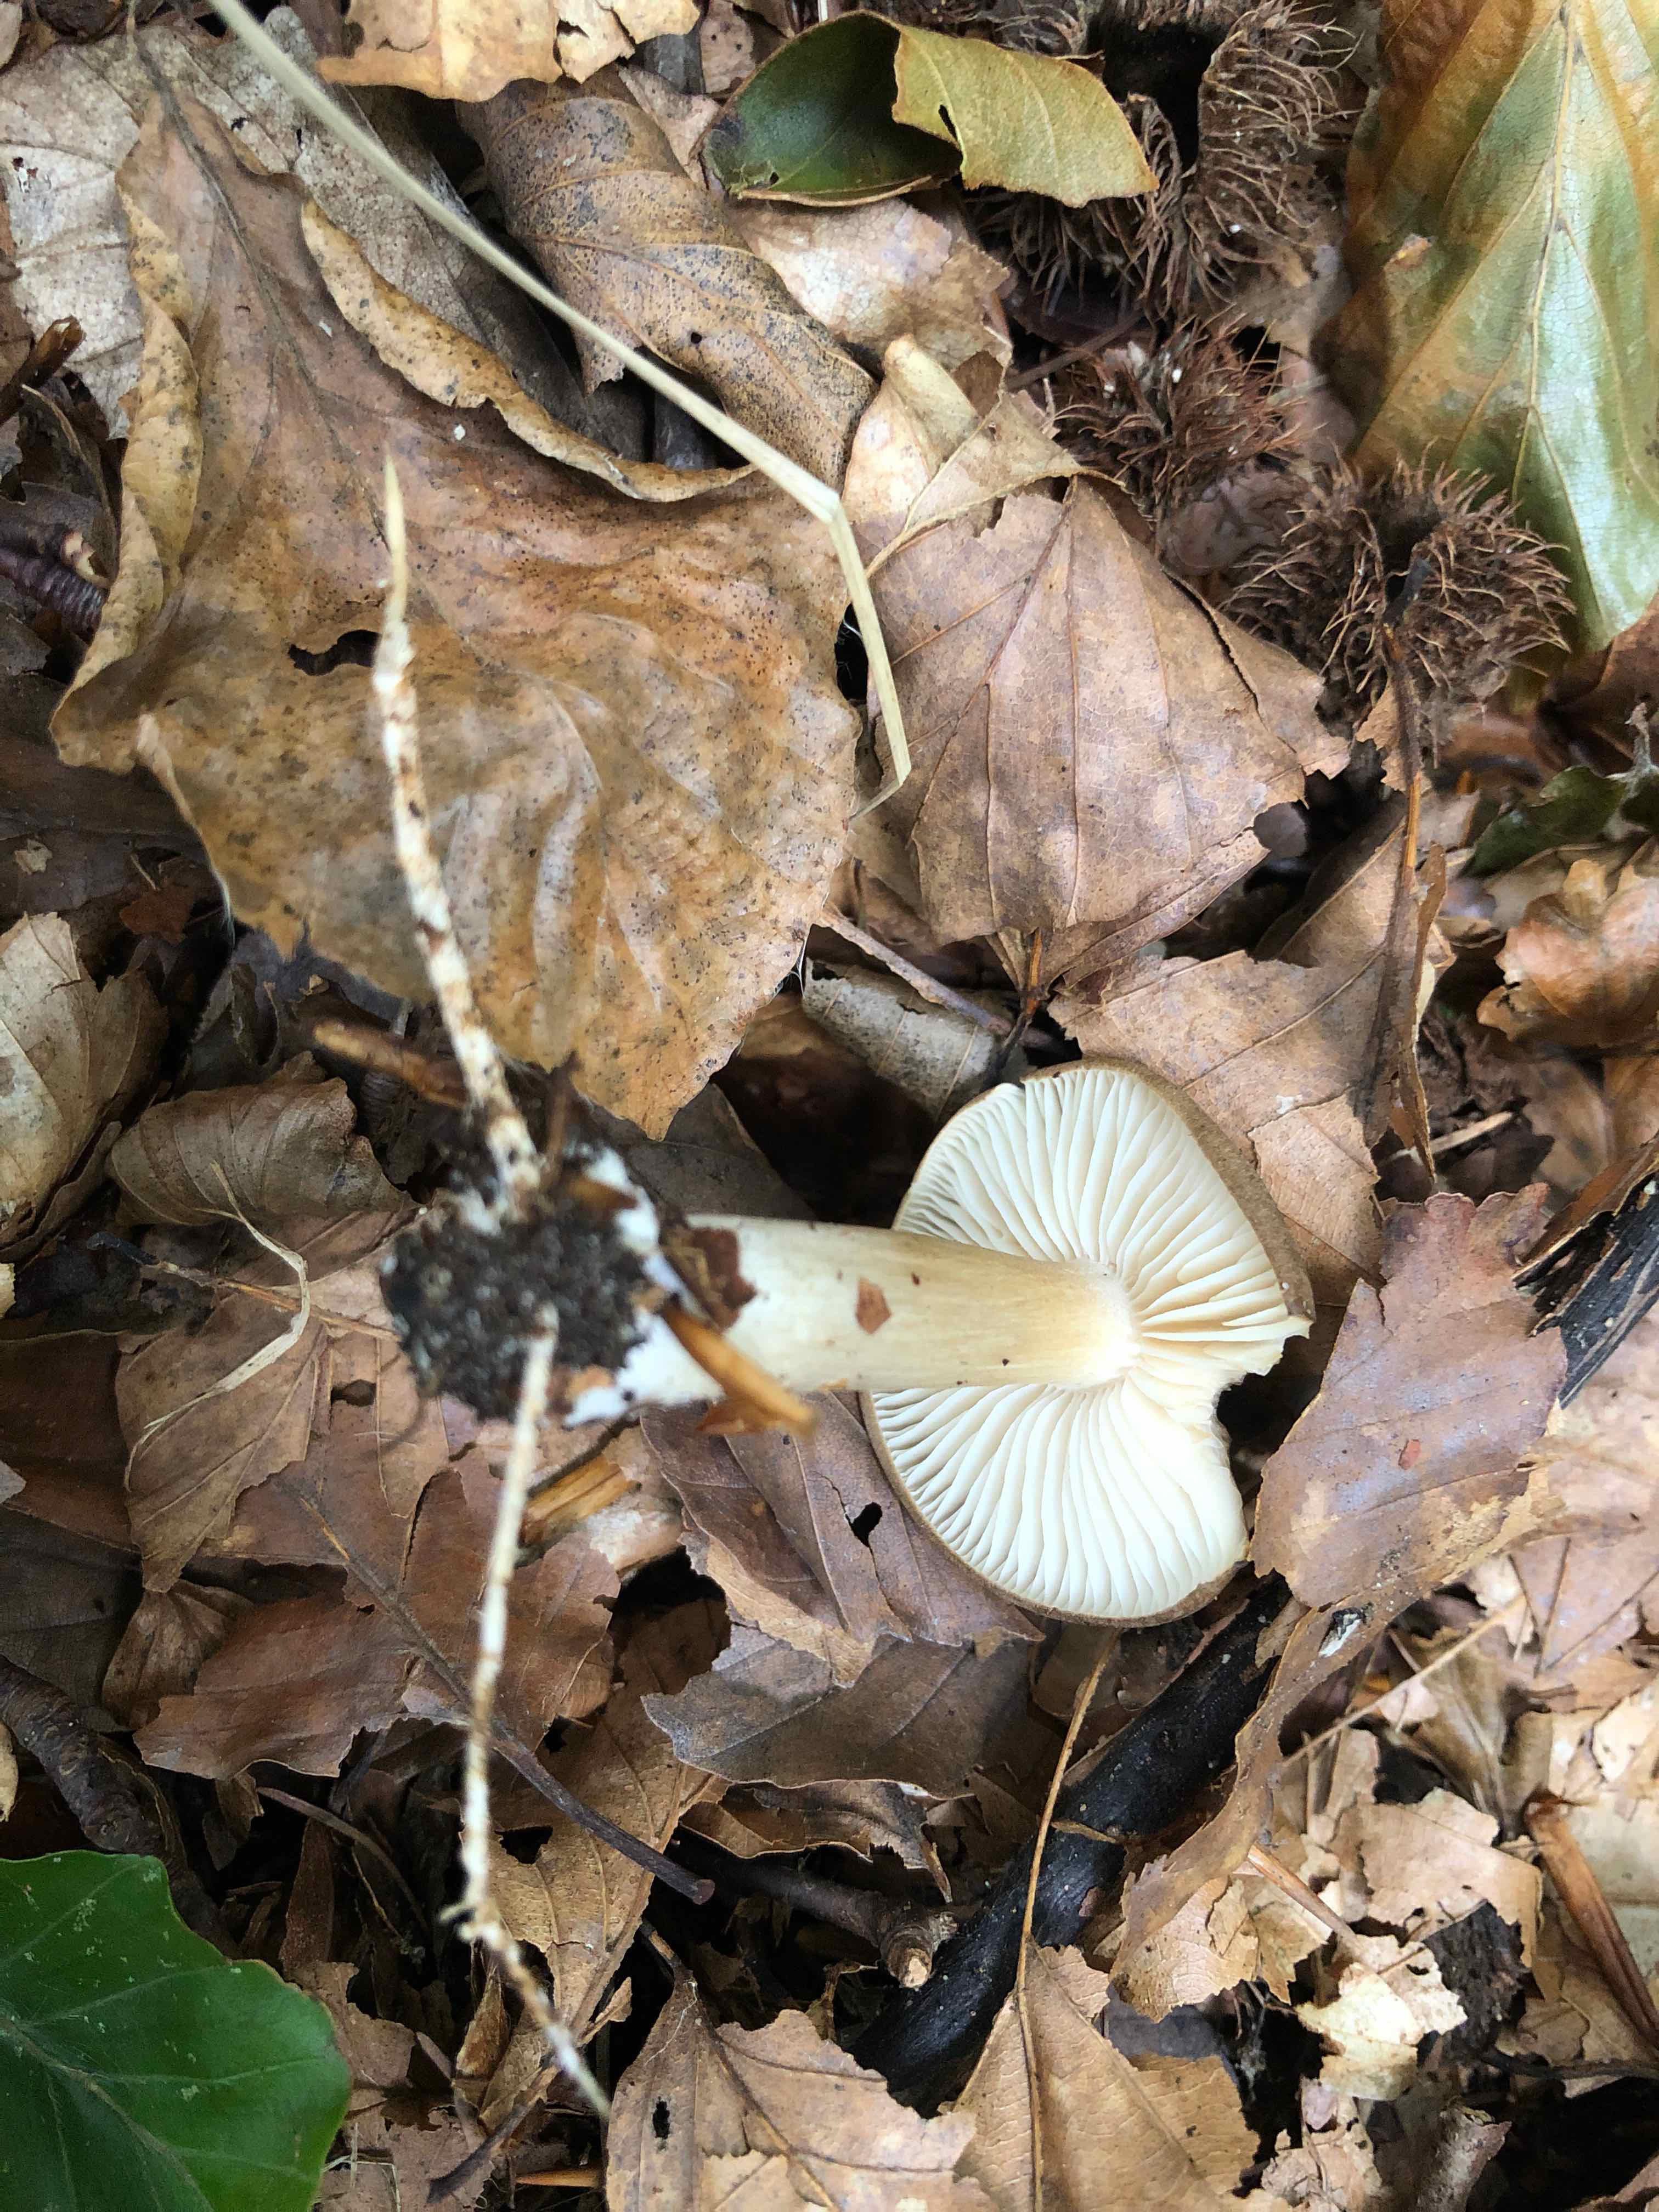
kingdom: Fungi
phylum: Basidiomycota
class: Agaricomycetes
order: Agaricales
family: Tricholomataceae
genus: Megacollybia
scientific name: Megacollybia platyphylla
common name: bredbladet væbnerhat
